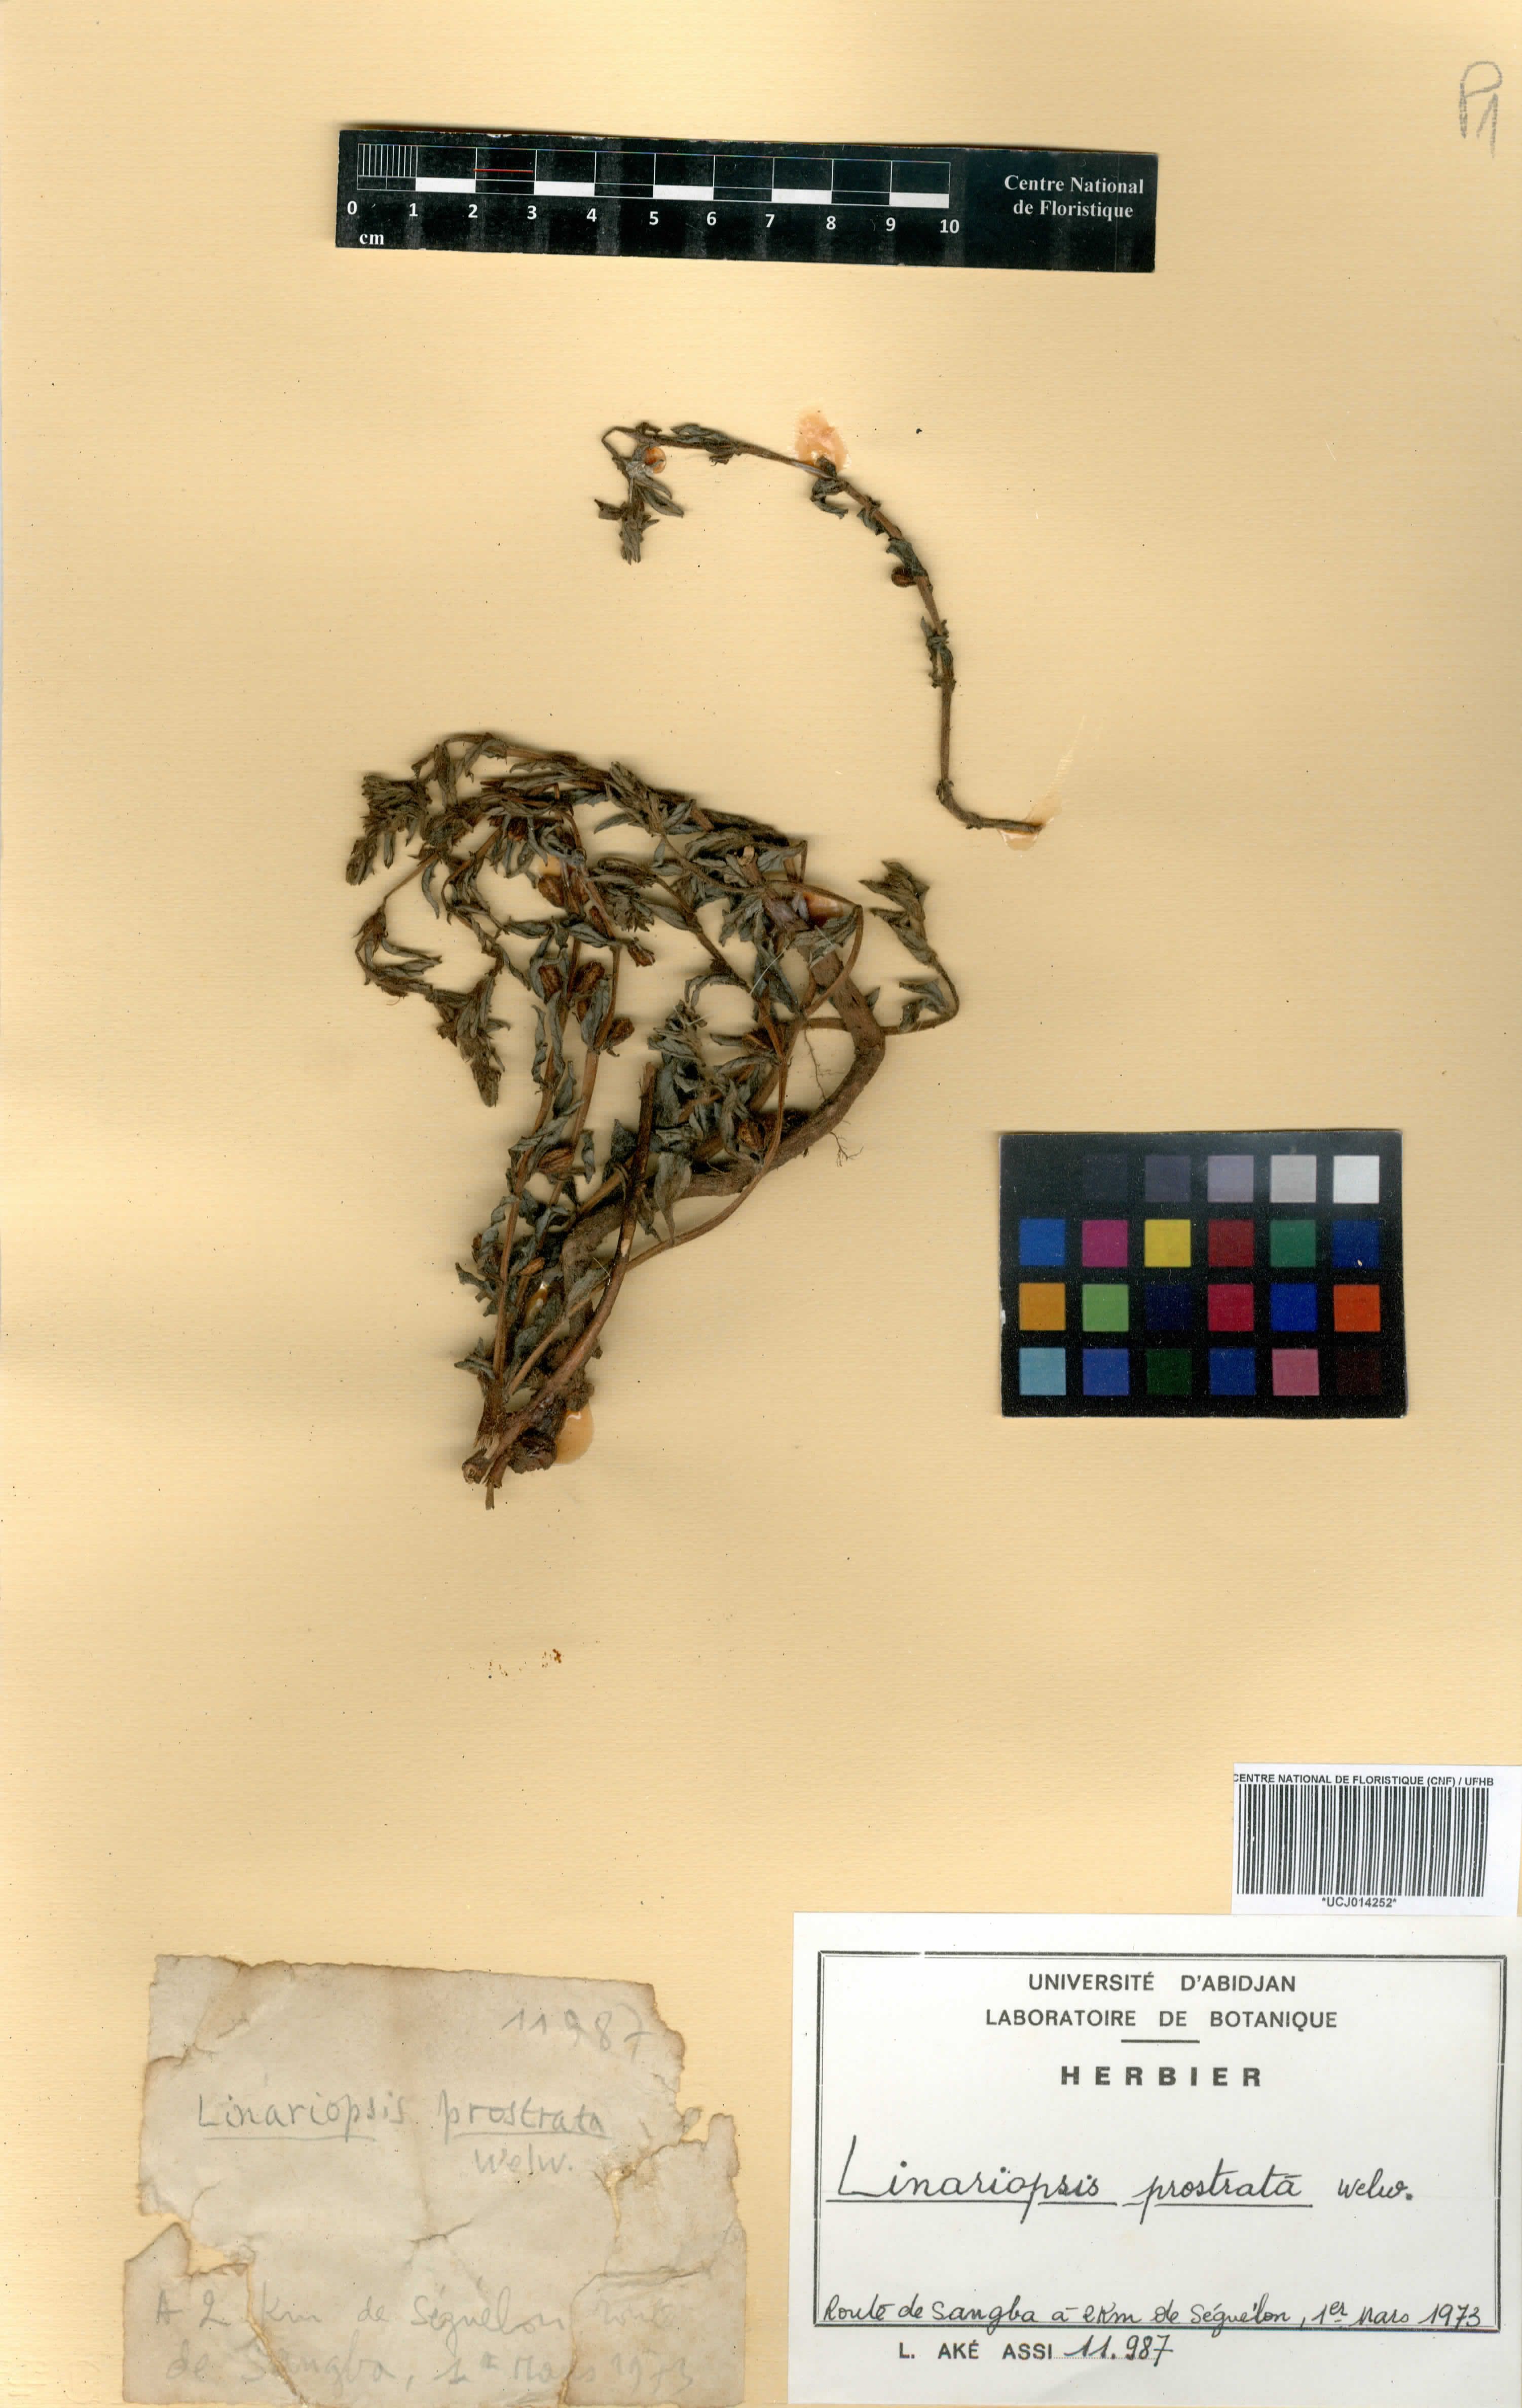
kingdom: Plantae
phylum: Tracheophyta
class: Magnoliopsida
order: Lamiales
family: Pedaliaceae
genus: Linariopsis
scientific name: Linariopsis prostrata
